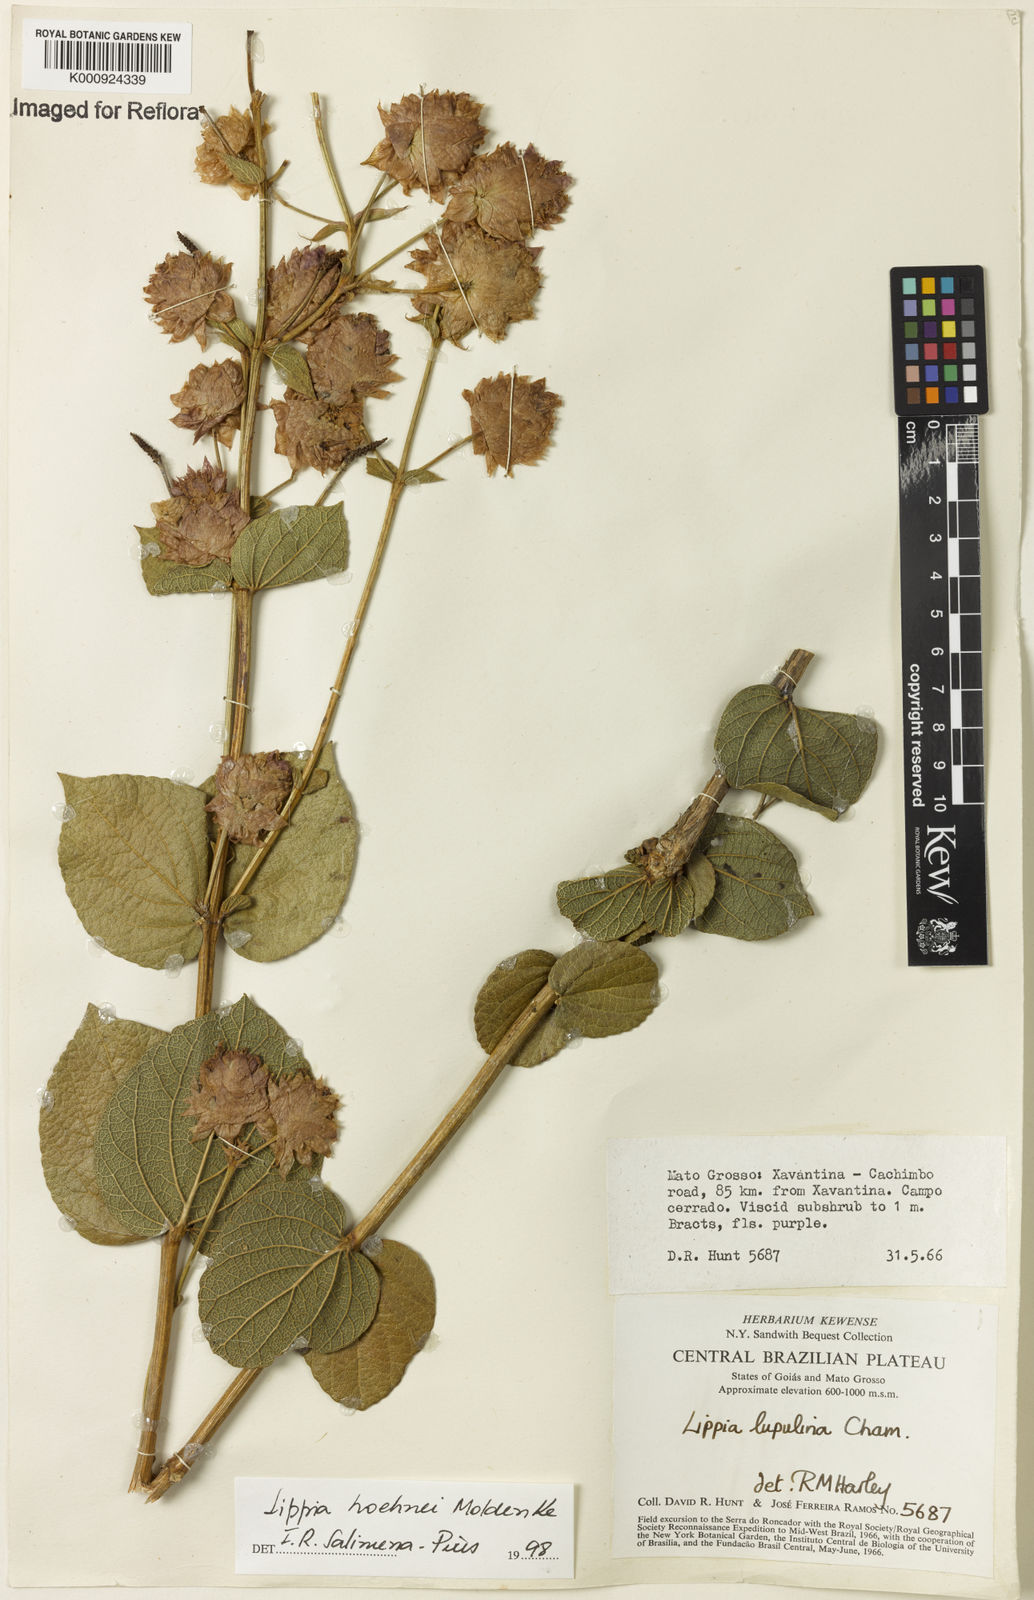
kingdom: Plantae
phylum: Tracheophyta
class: Magnoliopsida
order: Lamiales
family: Verbenaceae
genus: Lippia
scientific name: Lippia hoehnei
